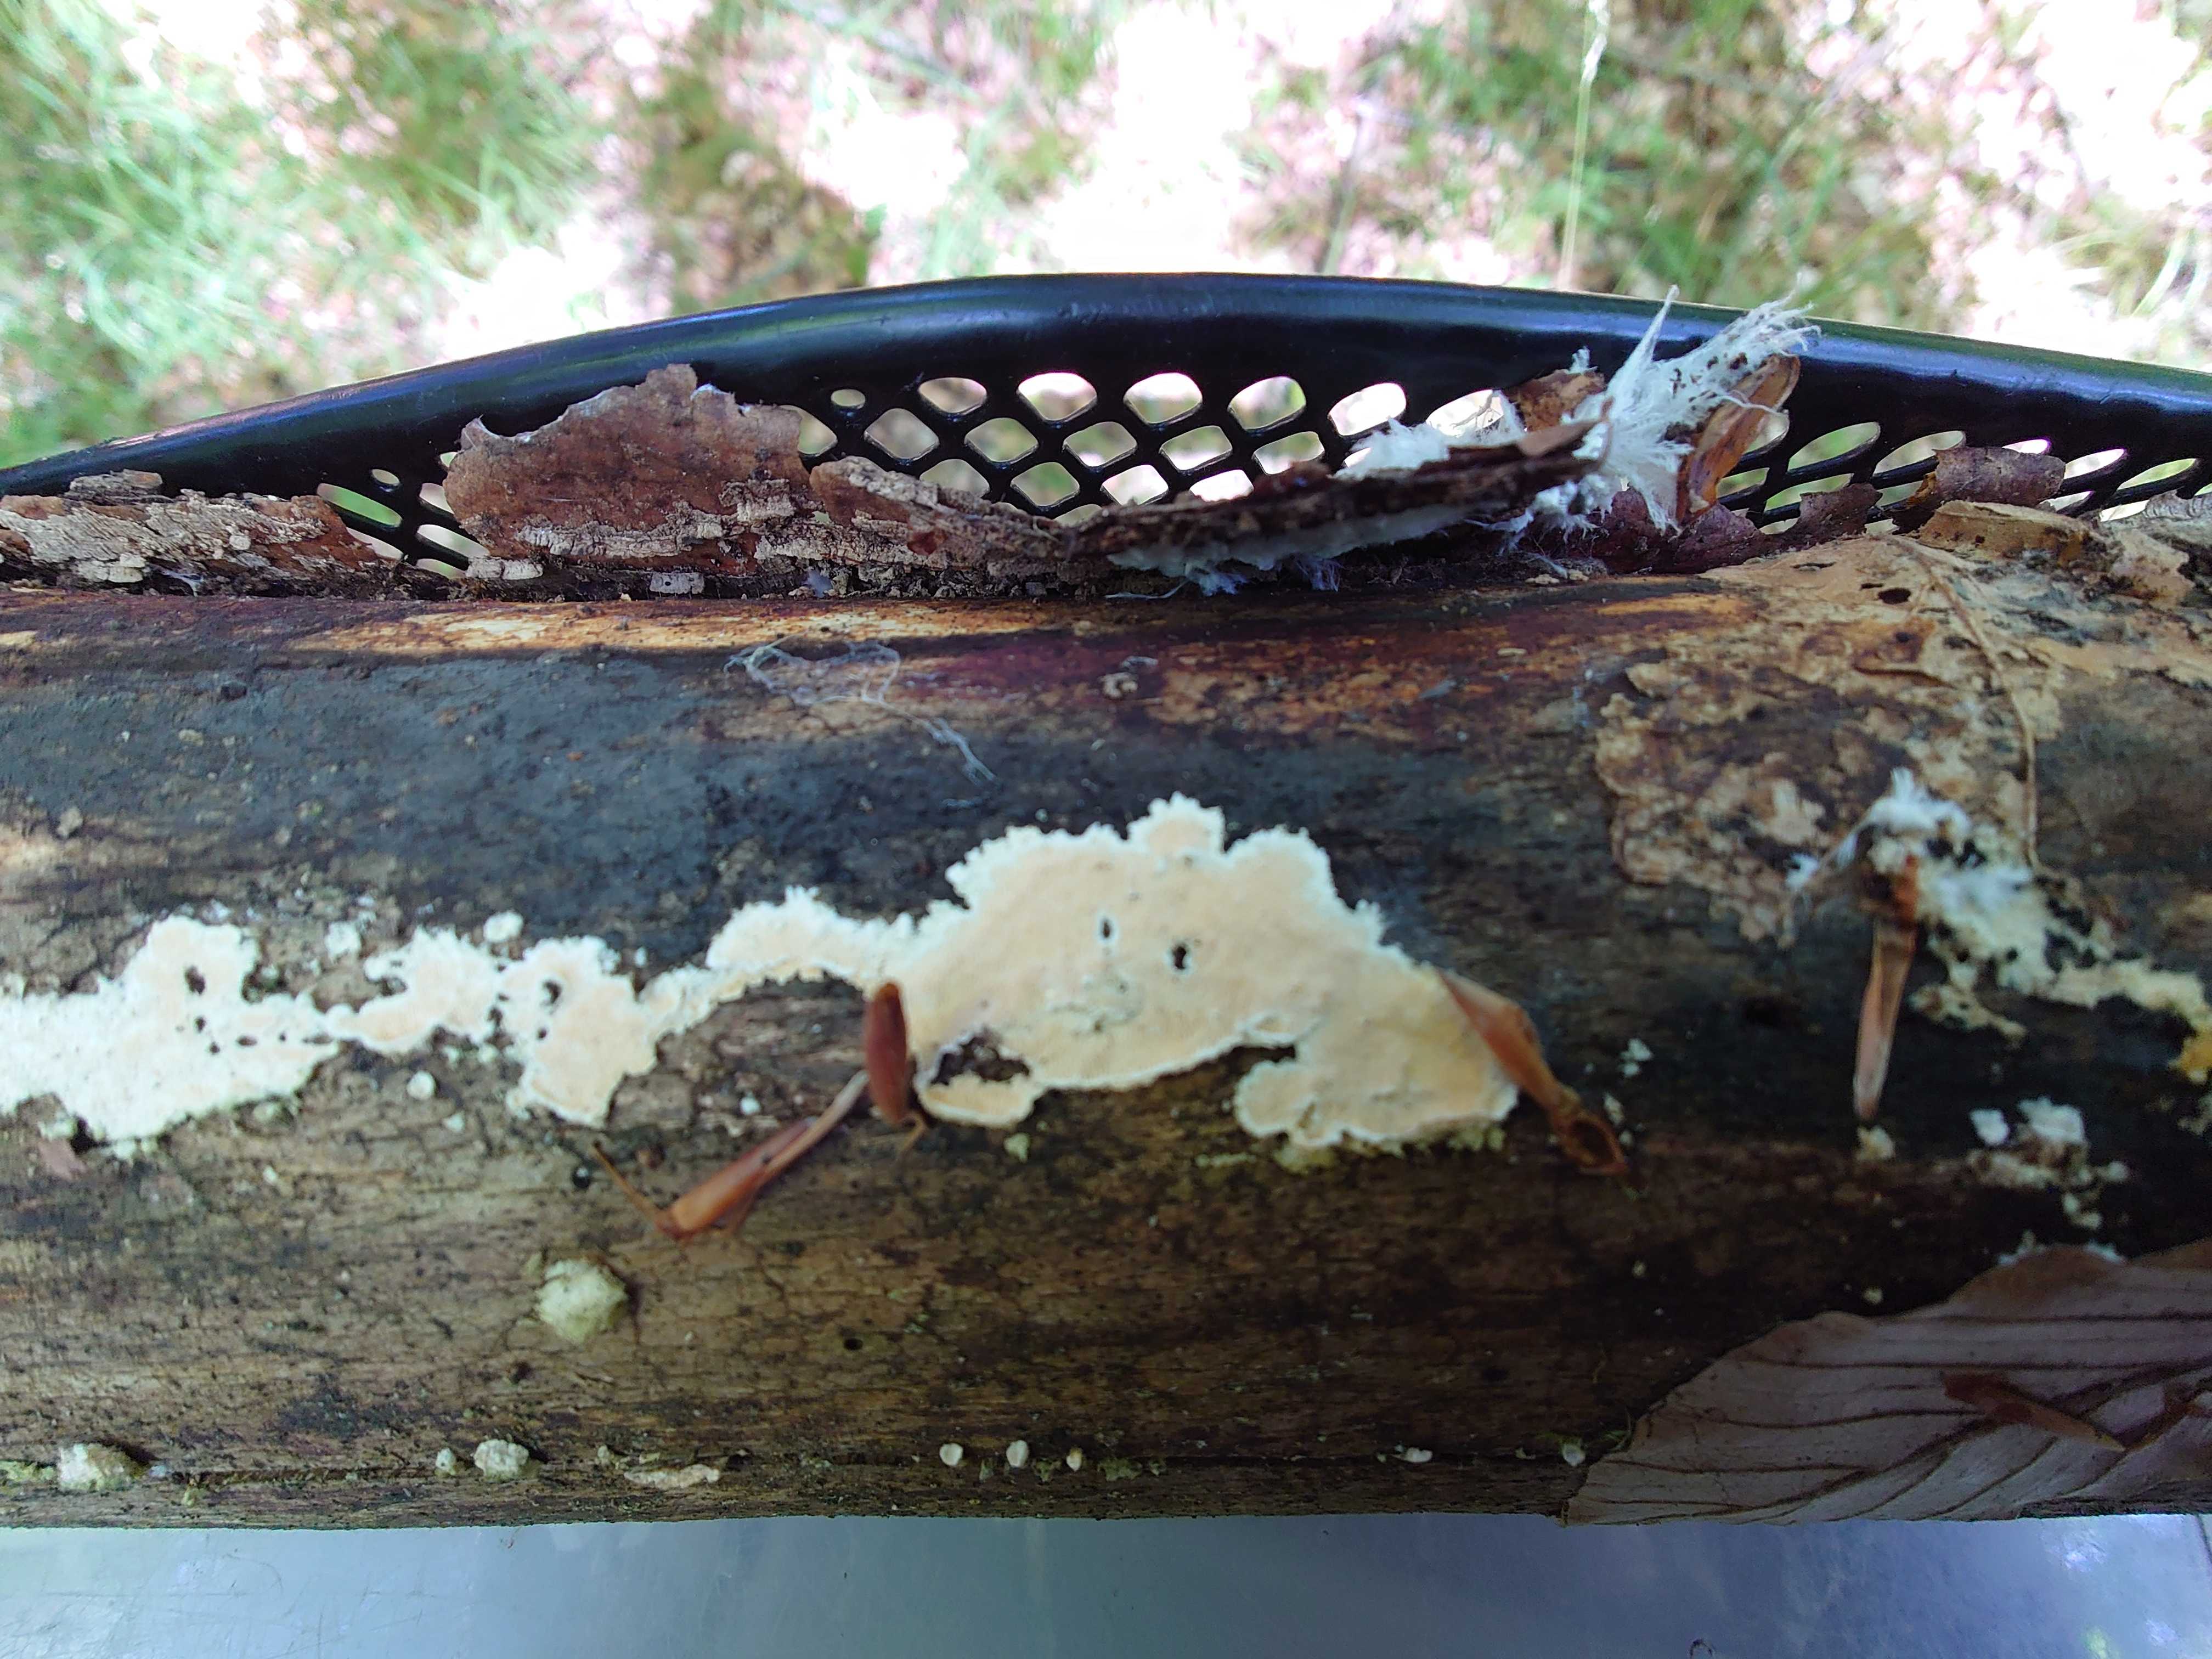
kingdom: Fungi
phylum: Basidiomycota
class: Agaricomycetes
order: Polyporales
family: Steccherinaceae
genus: Steccherinum
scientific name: Steccherinum ochraceum
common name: almindelig skønpig
